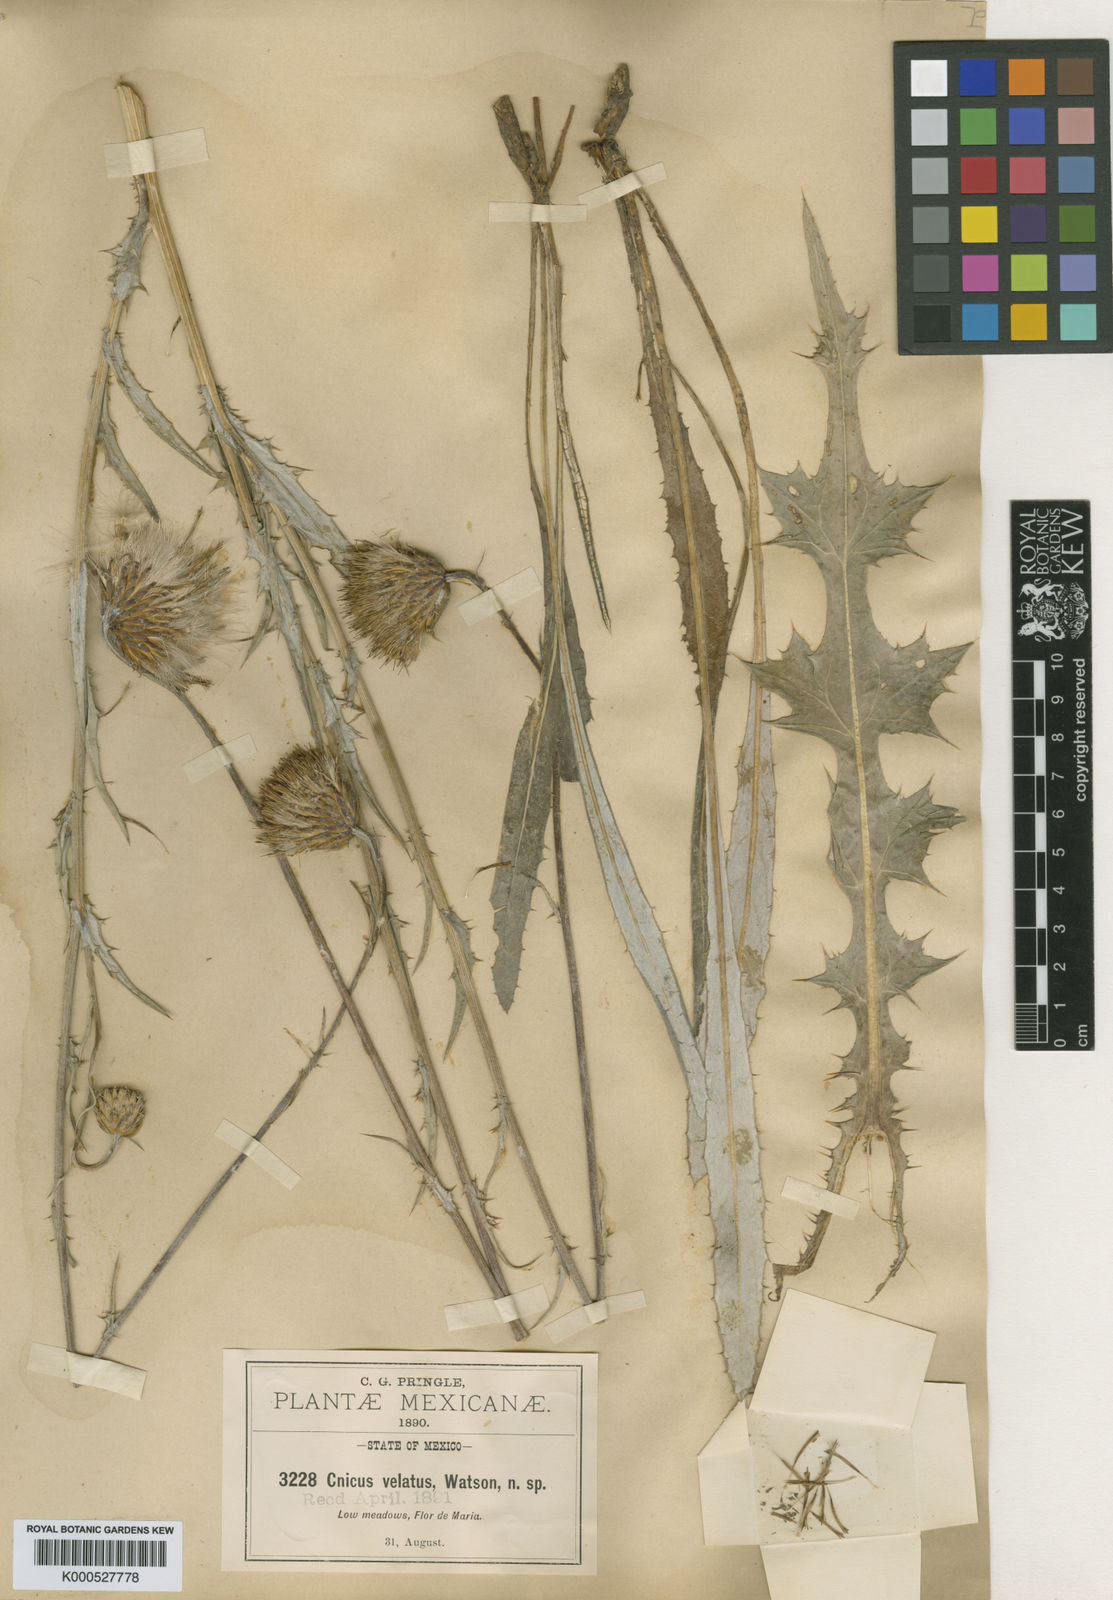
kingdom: Plantae
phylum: Tracheophyta
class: Magnoliopsida
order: Asterales
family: Asteraceae
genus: Cirsium
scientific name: Cirsium velatum
